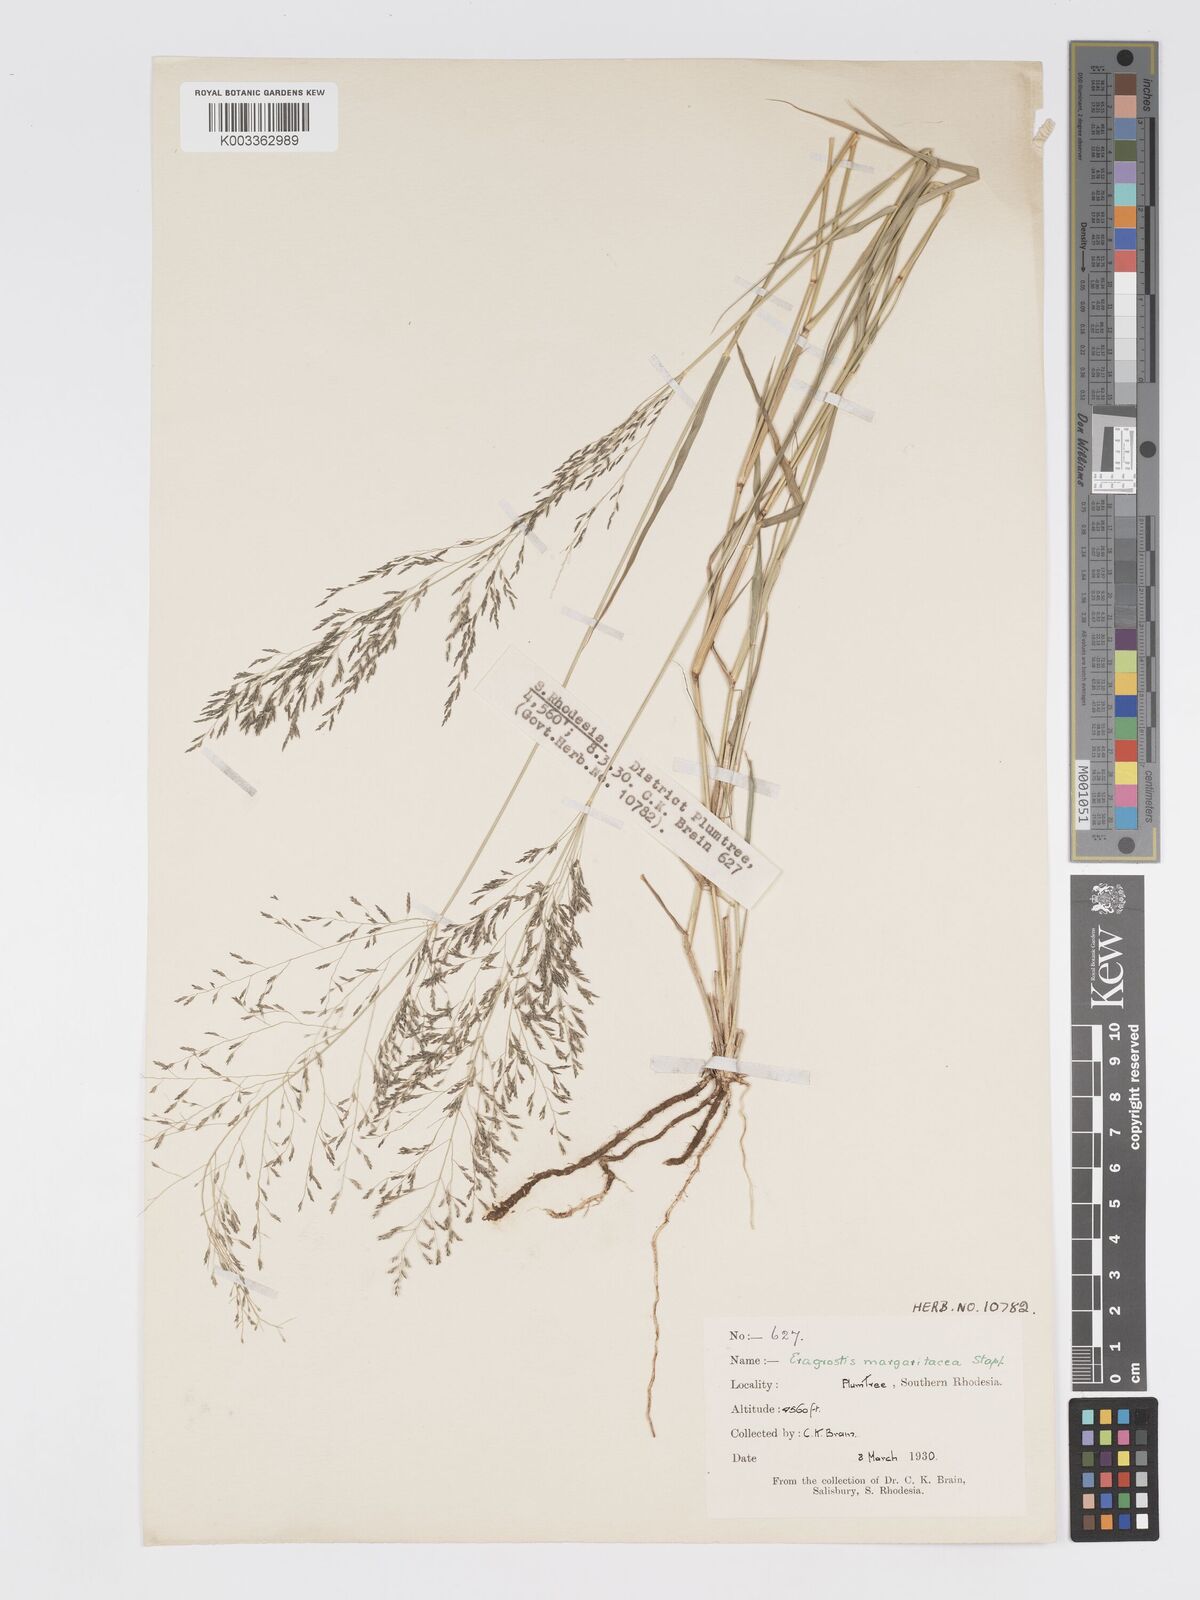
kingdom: Plantae
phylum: Tracheophyta
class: Liliopsida
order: Poales
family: Poaceae
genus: Eragrostis
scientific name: Eragrostis cylindriflora
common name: Cylinderflower lovegrass
